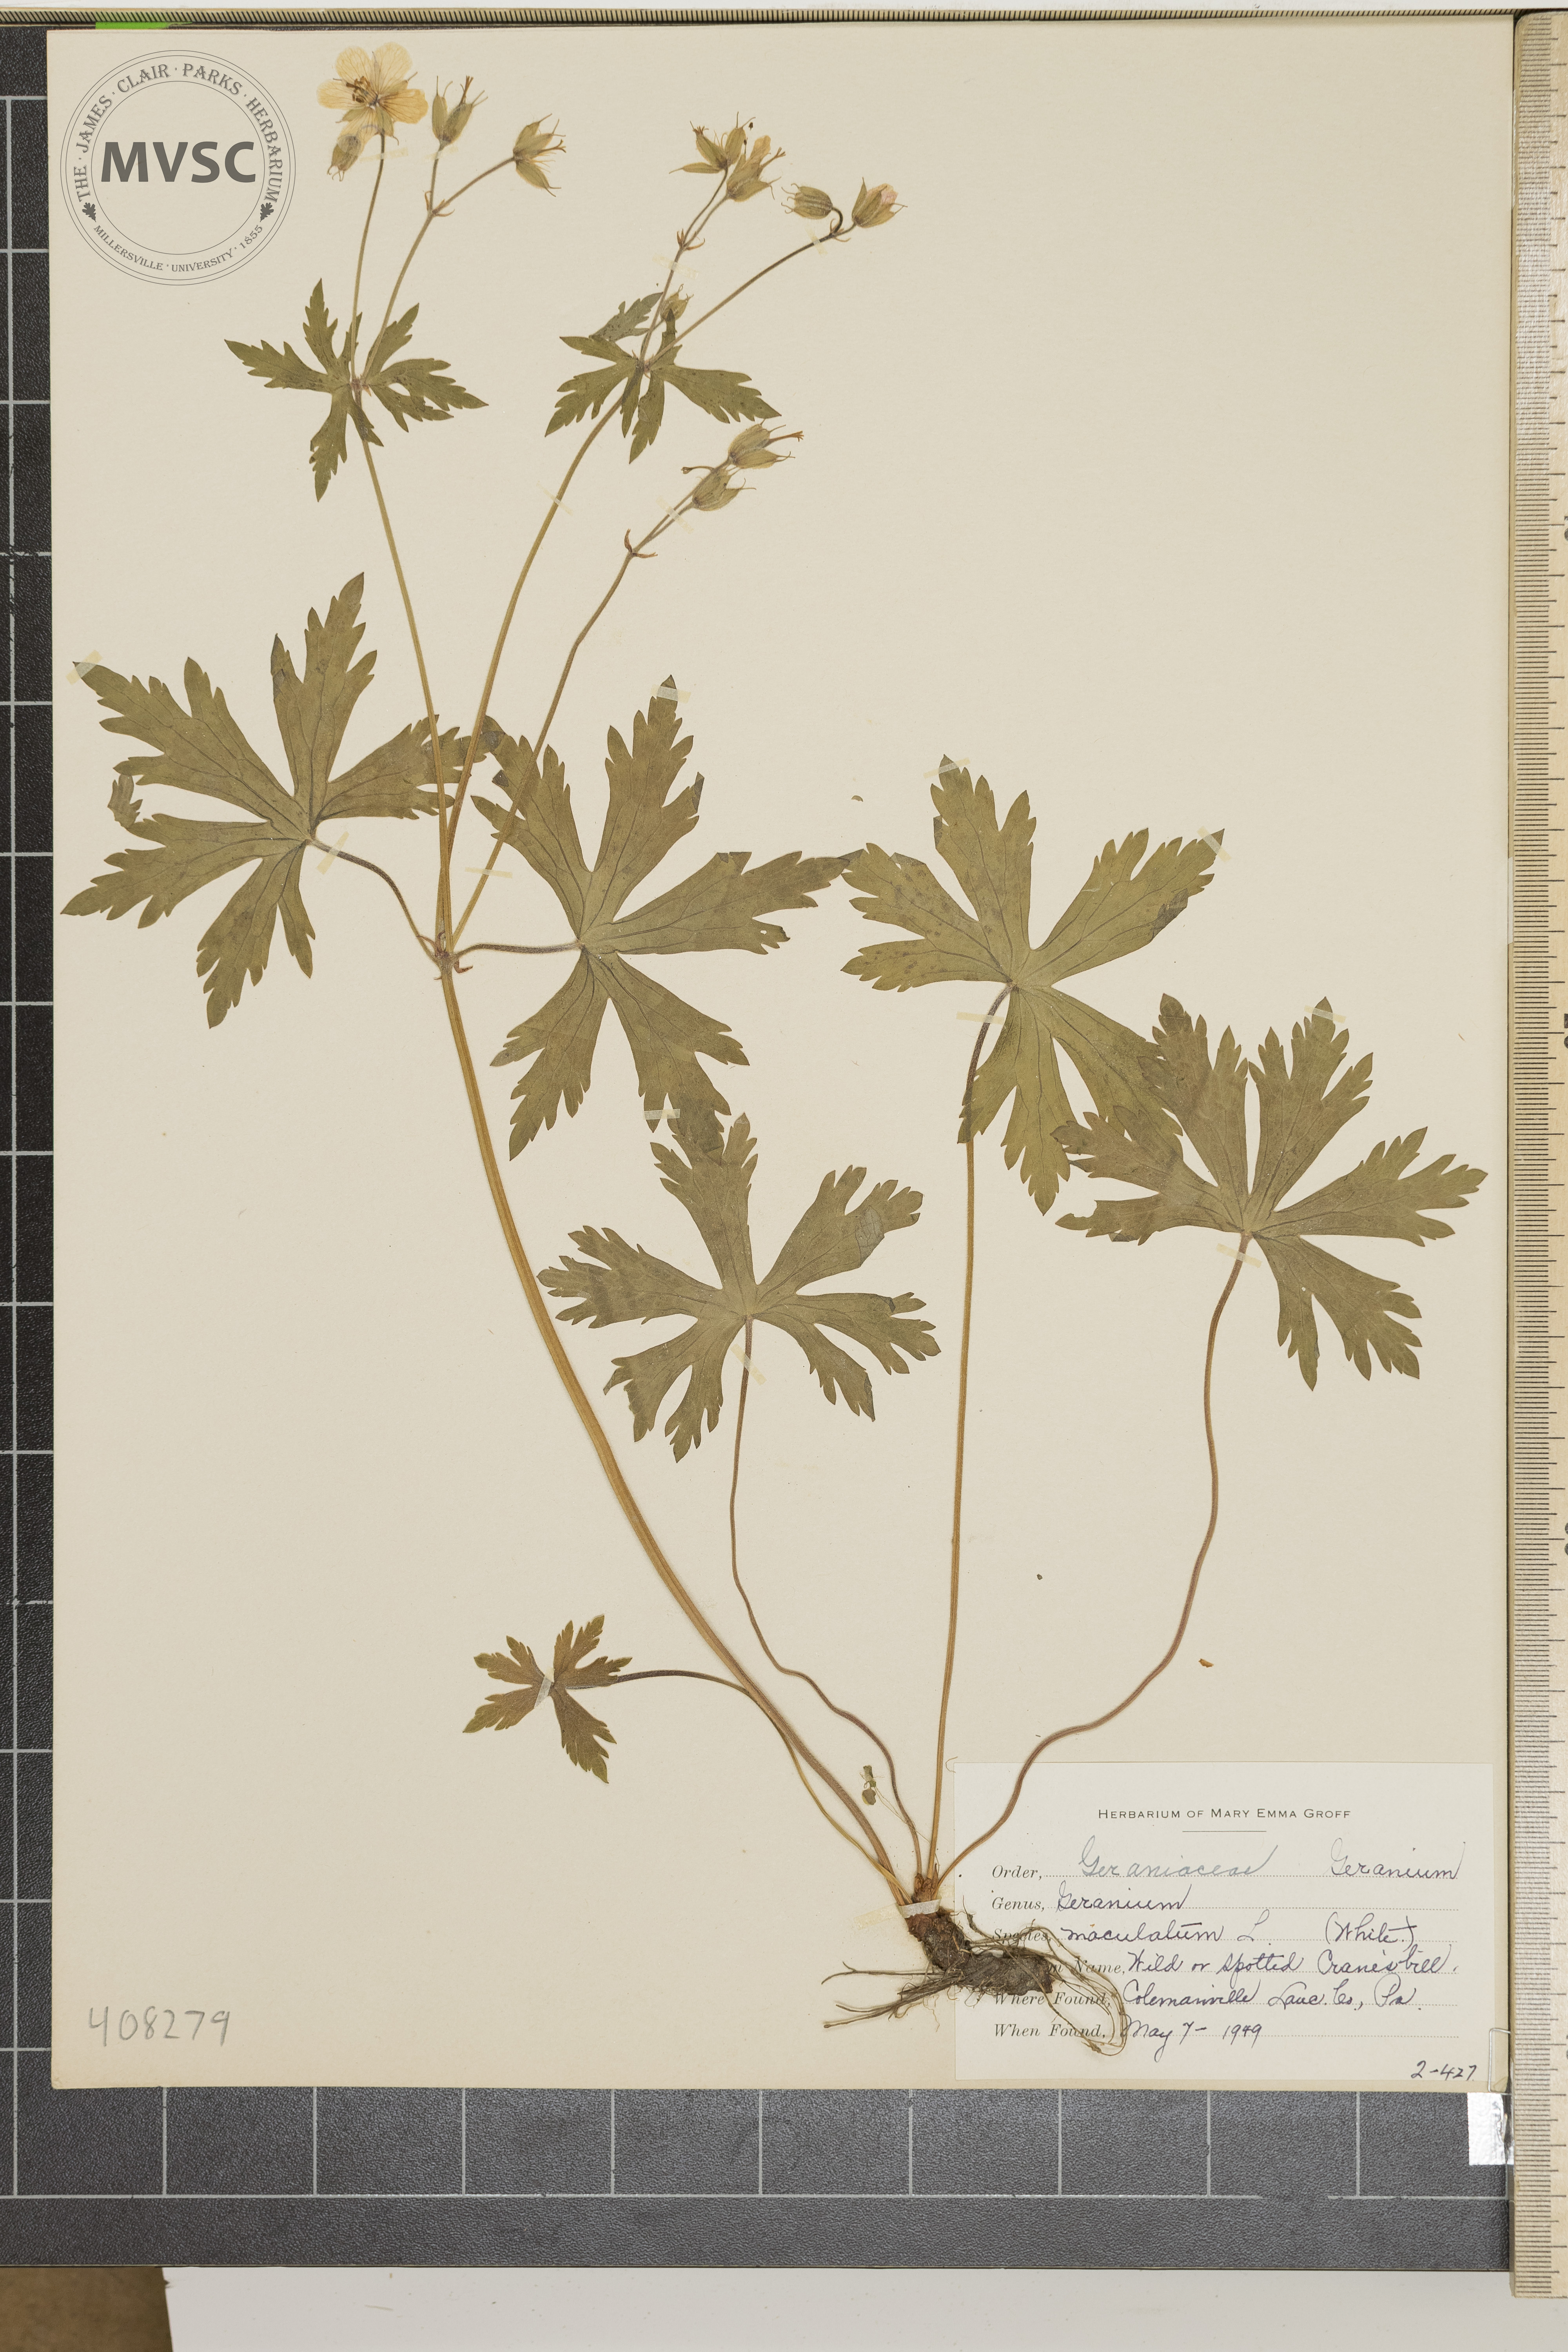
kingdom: Plantae
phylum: Tracheophyta
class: Magnoliopsida
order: Geraniales
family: Geraniaceae
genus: Geranium
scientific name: Geranium maculatum
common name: Spotted geranium
